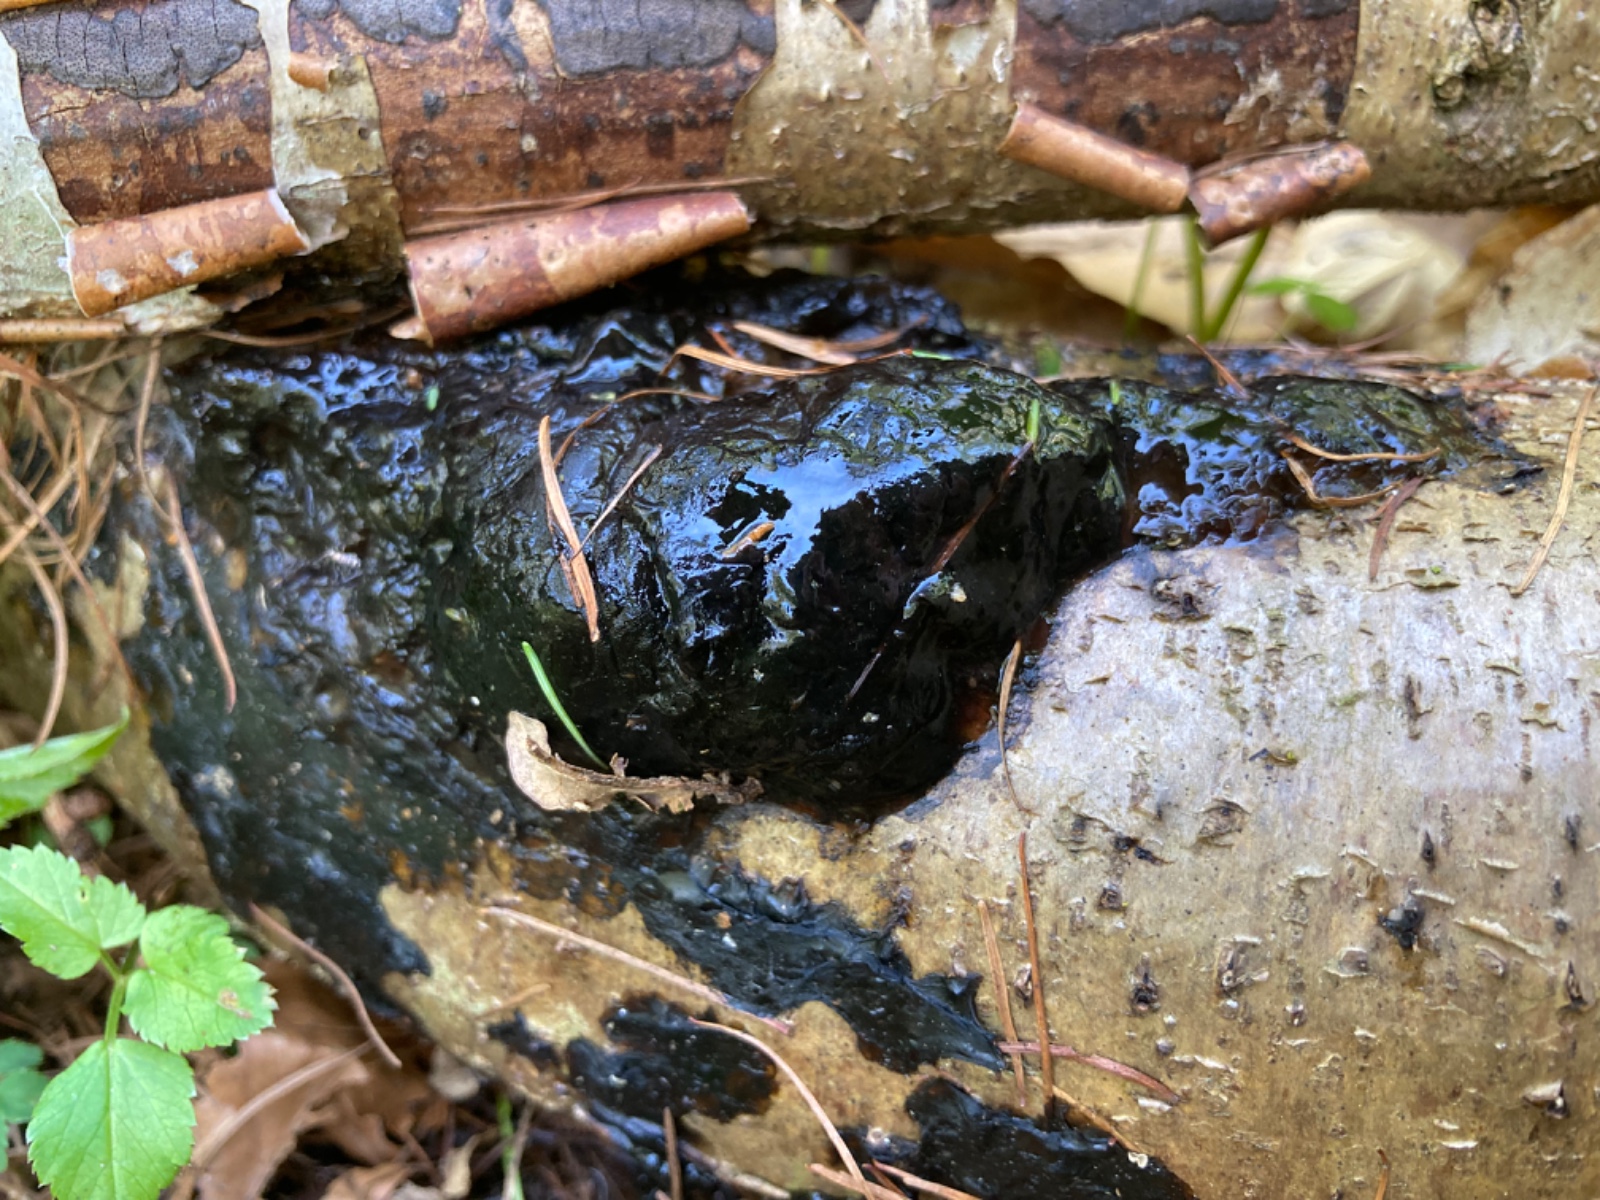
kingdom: Fungi
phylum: Basidiomycota
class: Agaricomycetes
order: Auriculariales
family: Auriculariaceae
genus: Exidia
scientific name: Exidia nigricans
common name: almindelig bævretop
